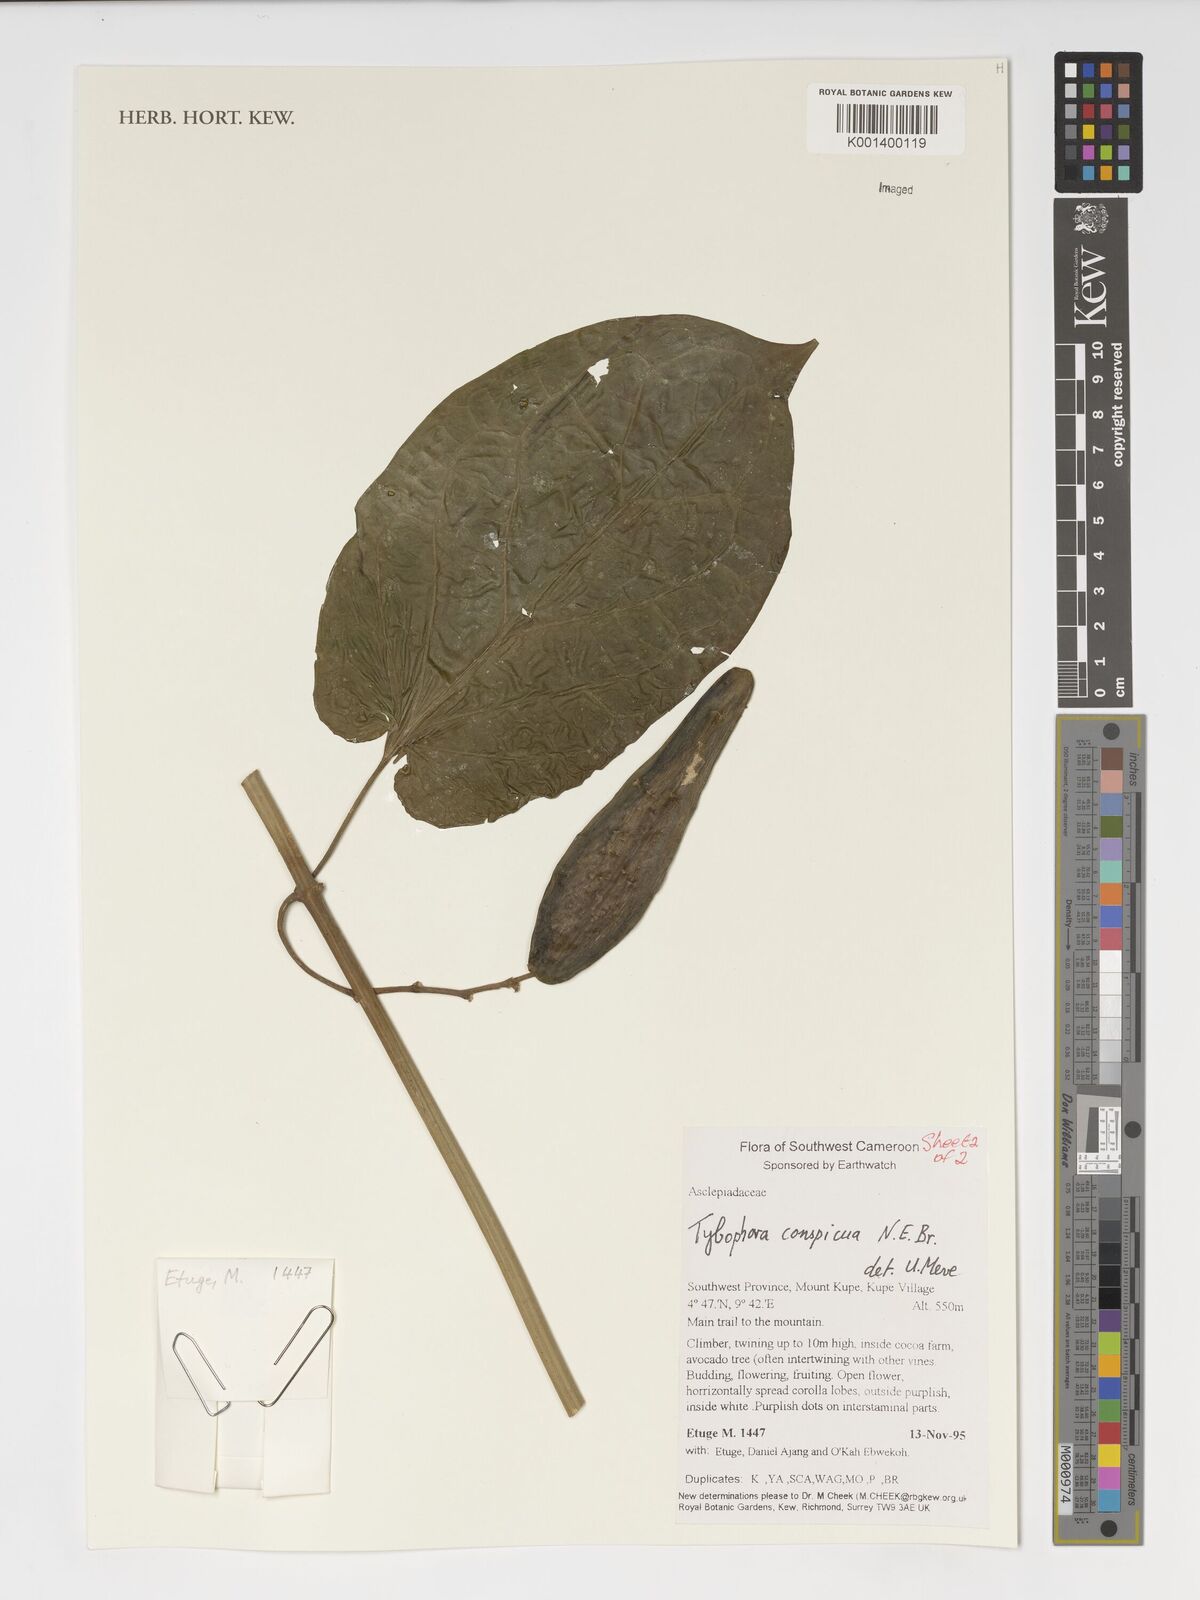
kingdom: Plantae
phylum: Tracheophyta
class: Magnoliopsida
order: Gentianales
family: Apocynaceae
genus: Vincetoxicum
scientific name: Vincetoxicum conspicuum
